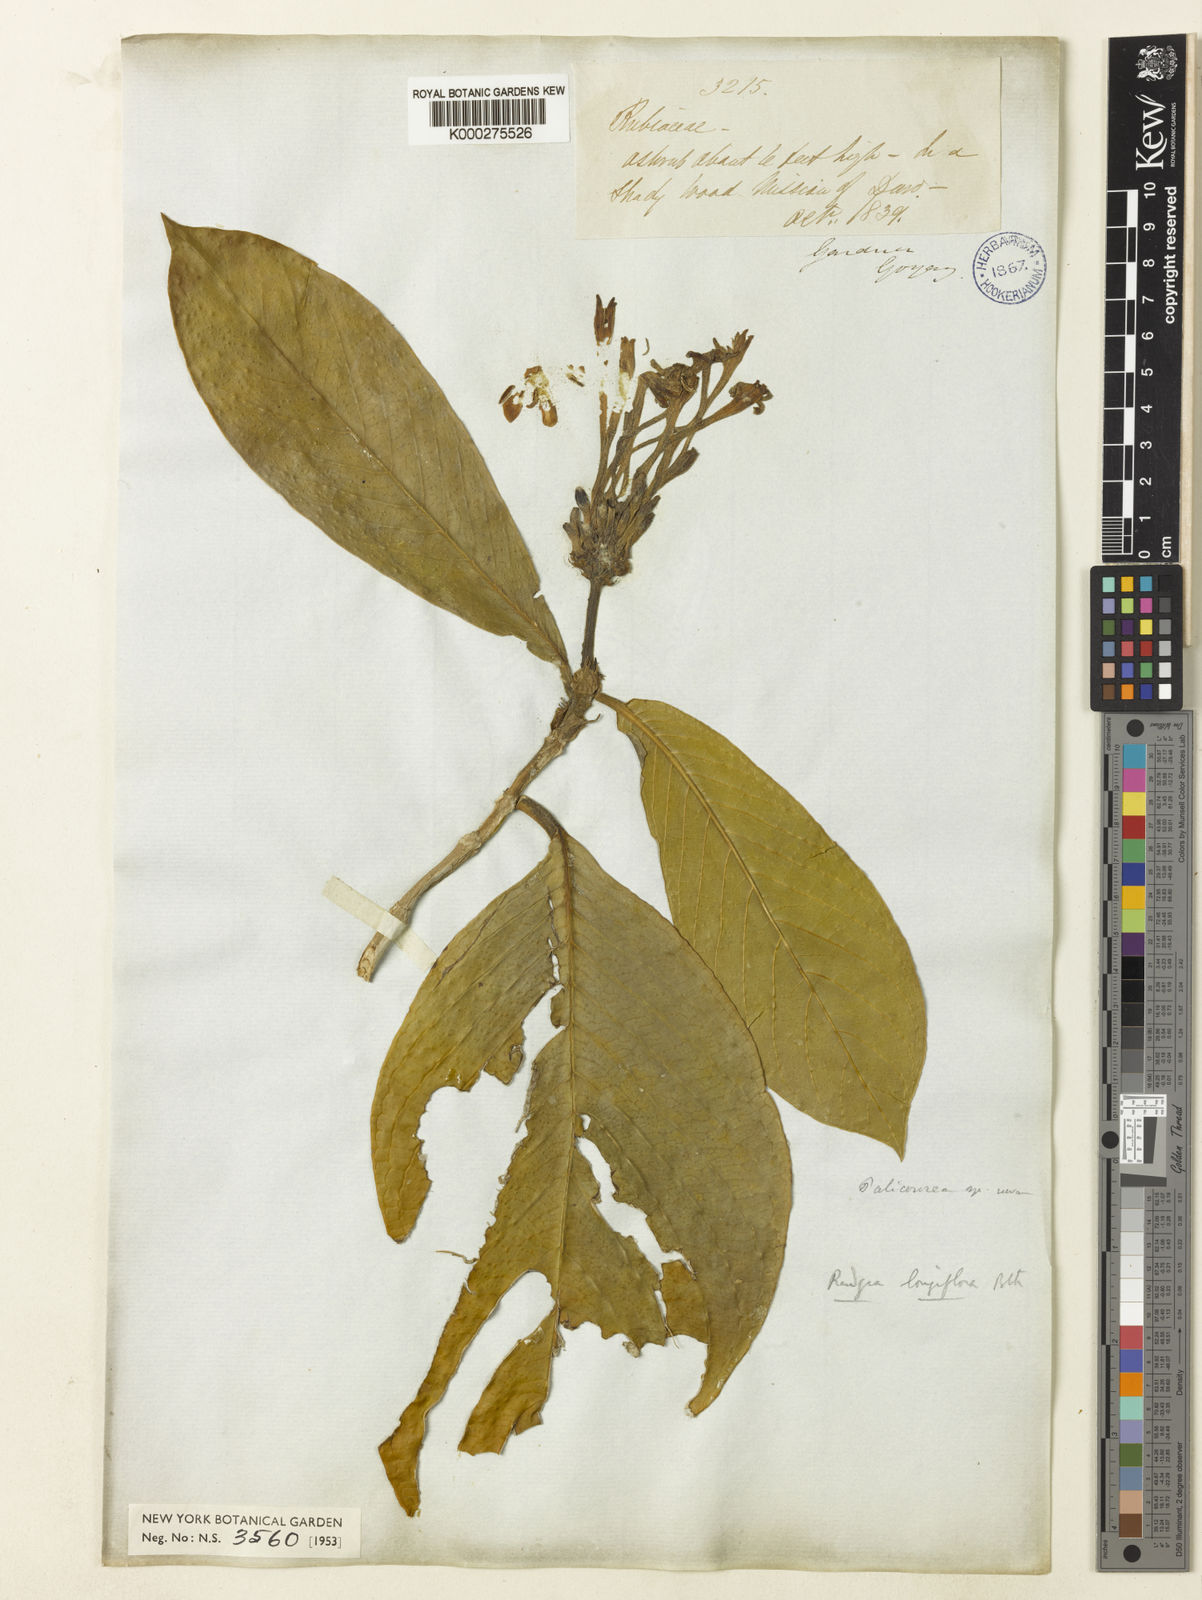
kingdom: Plantae
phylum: Tracheophyta
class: Magnoliopsida
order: Gentianales
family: Rubiaceae
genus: Rudgea
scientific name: Rudgea longiflora
